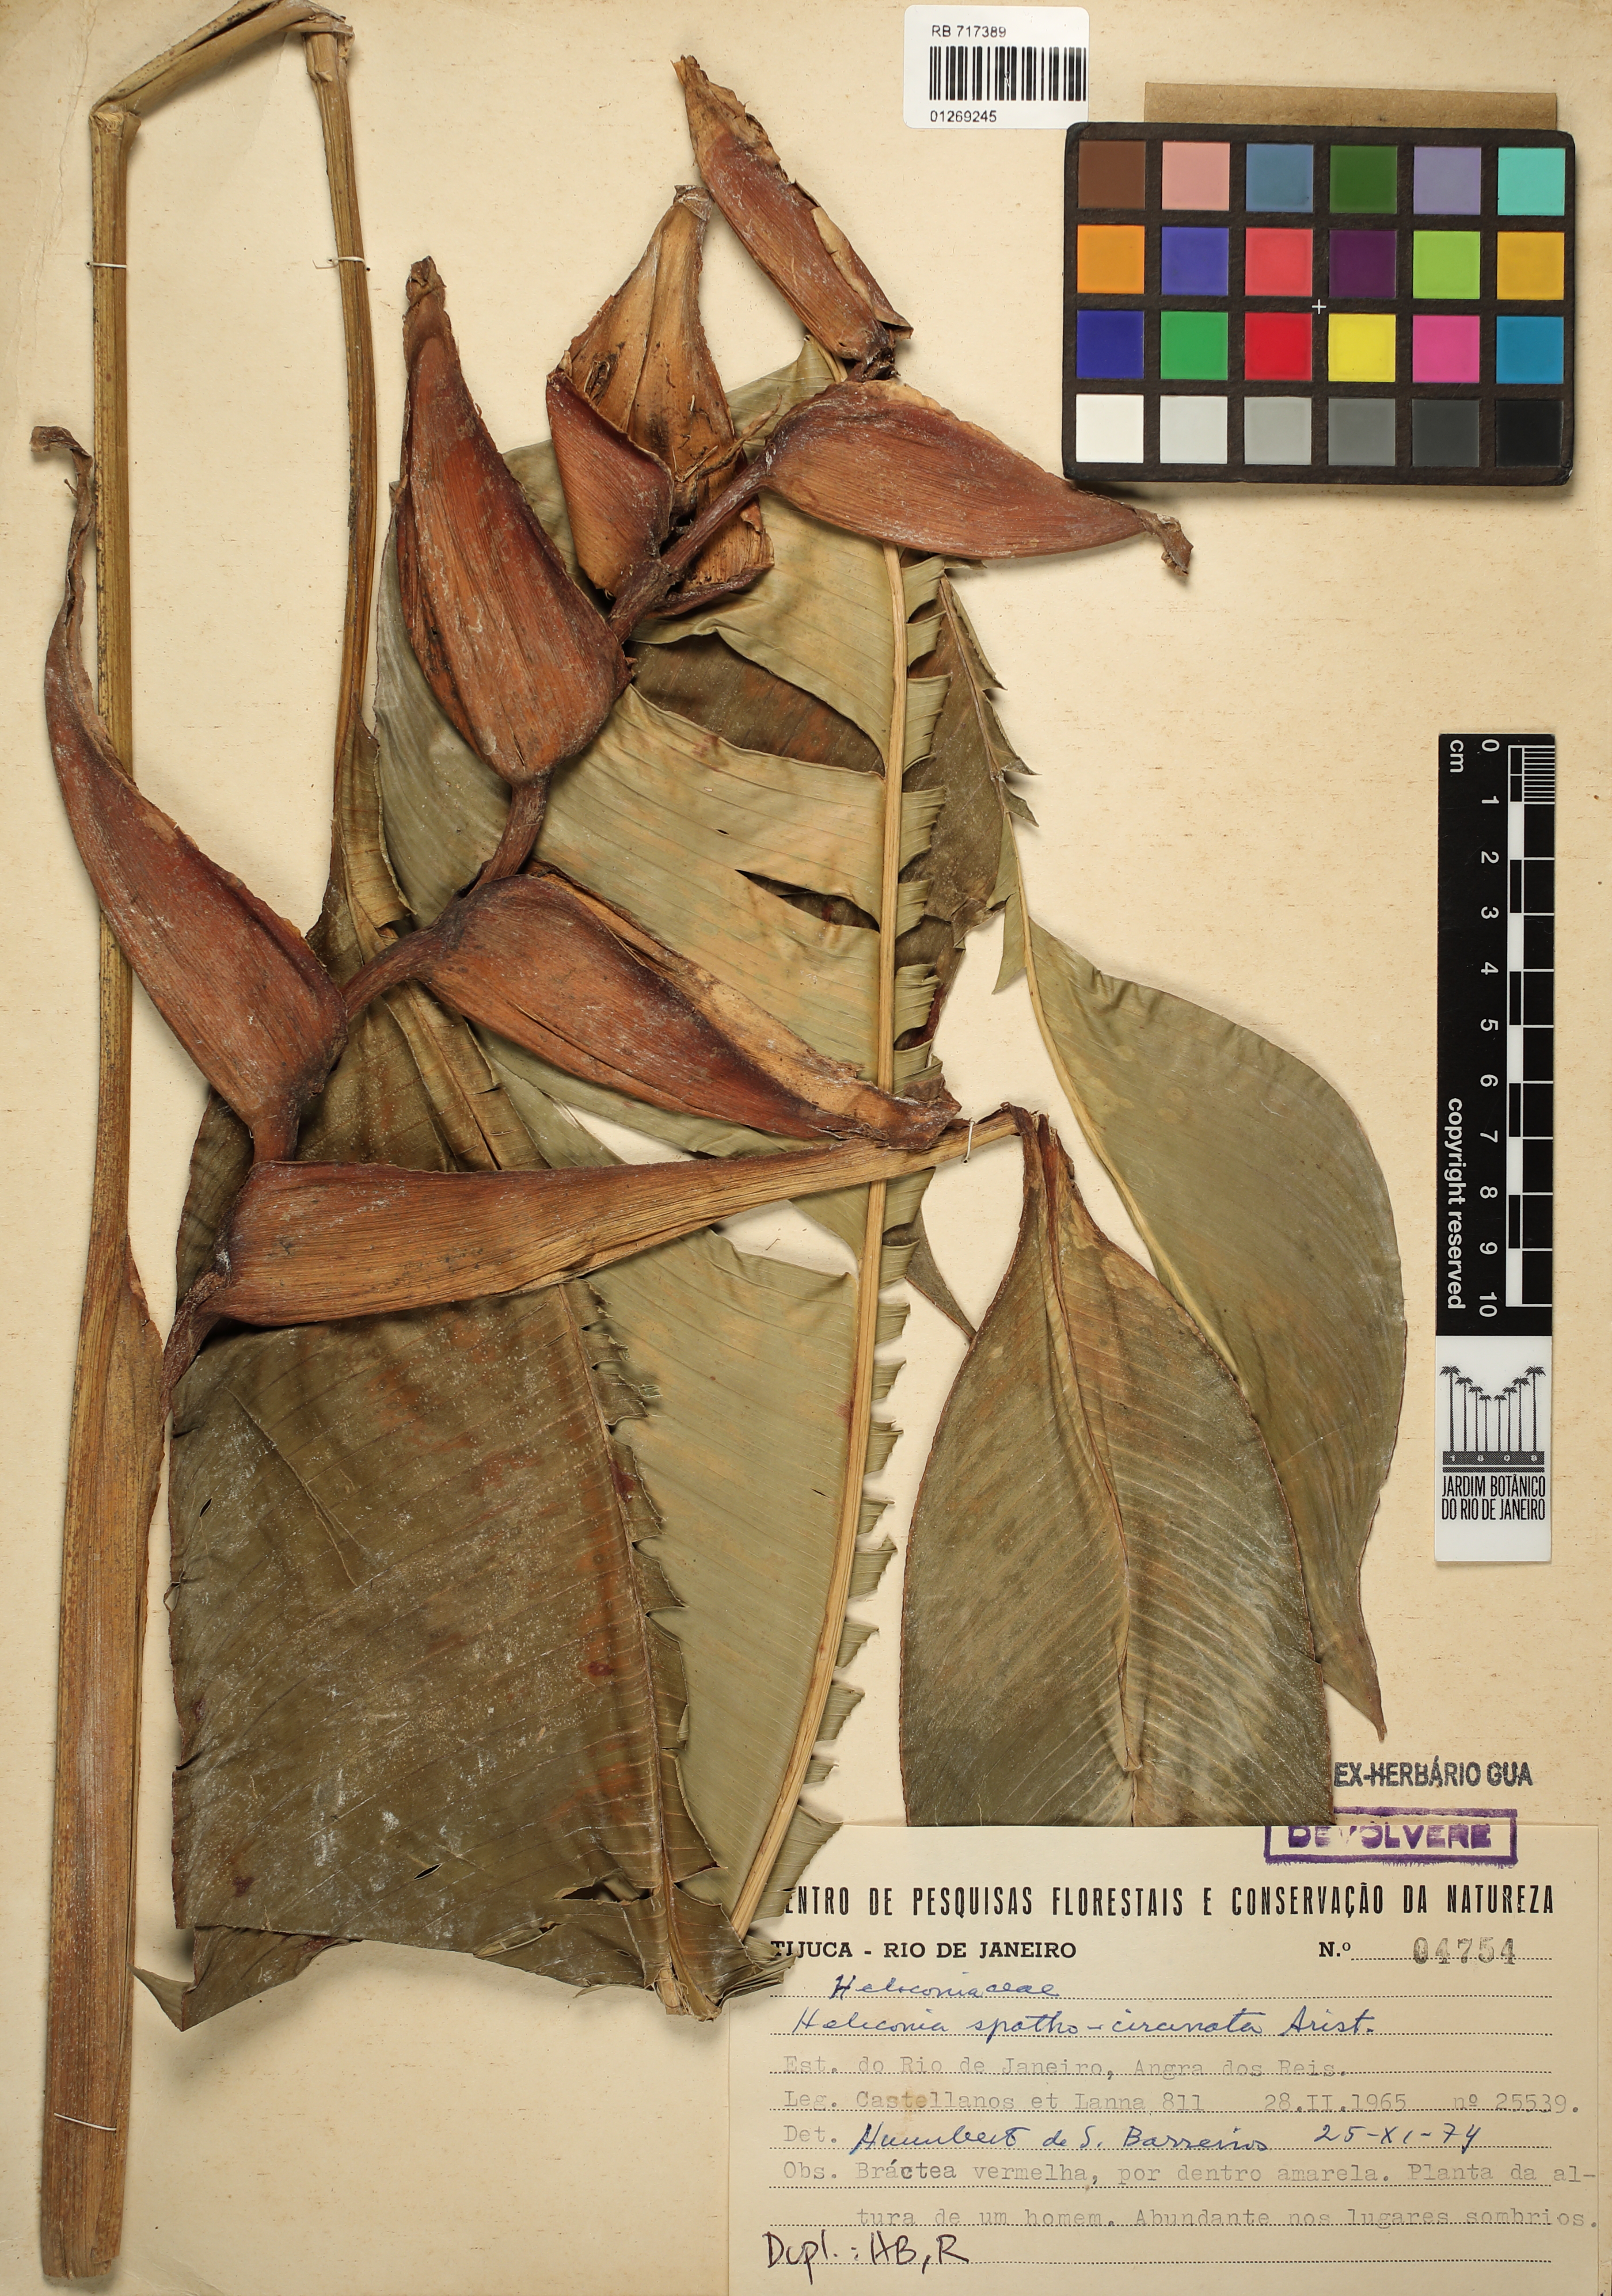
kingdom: Plantae
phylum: Tracheophyta
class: Liliopsida
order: Zingiberales
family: Heliconiaceae
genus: Heliconia
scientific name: Heliconia spathocircinata
